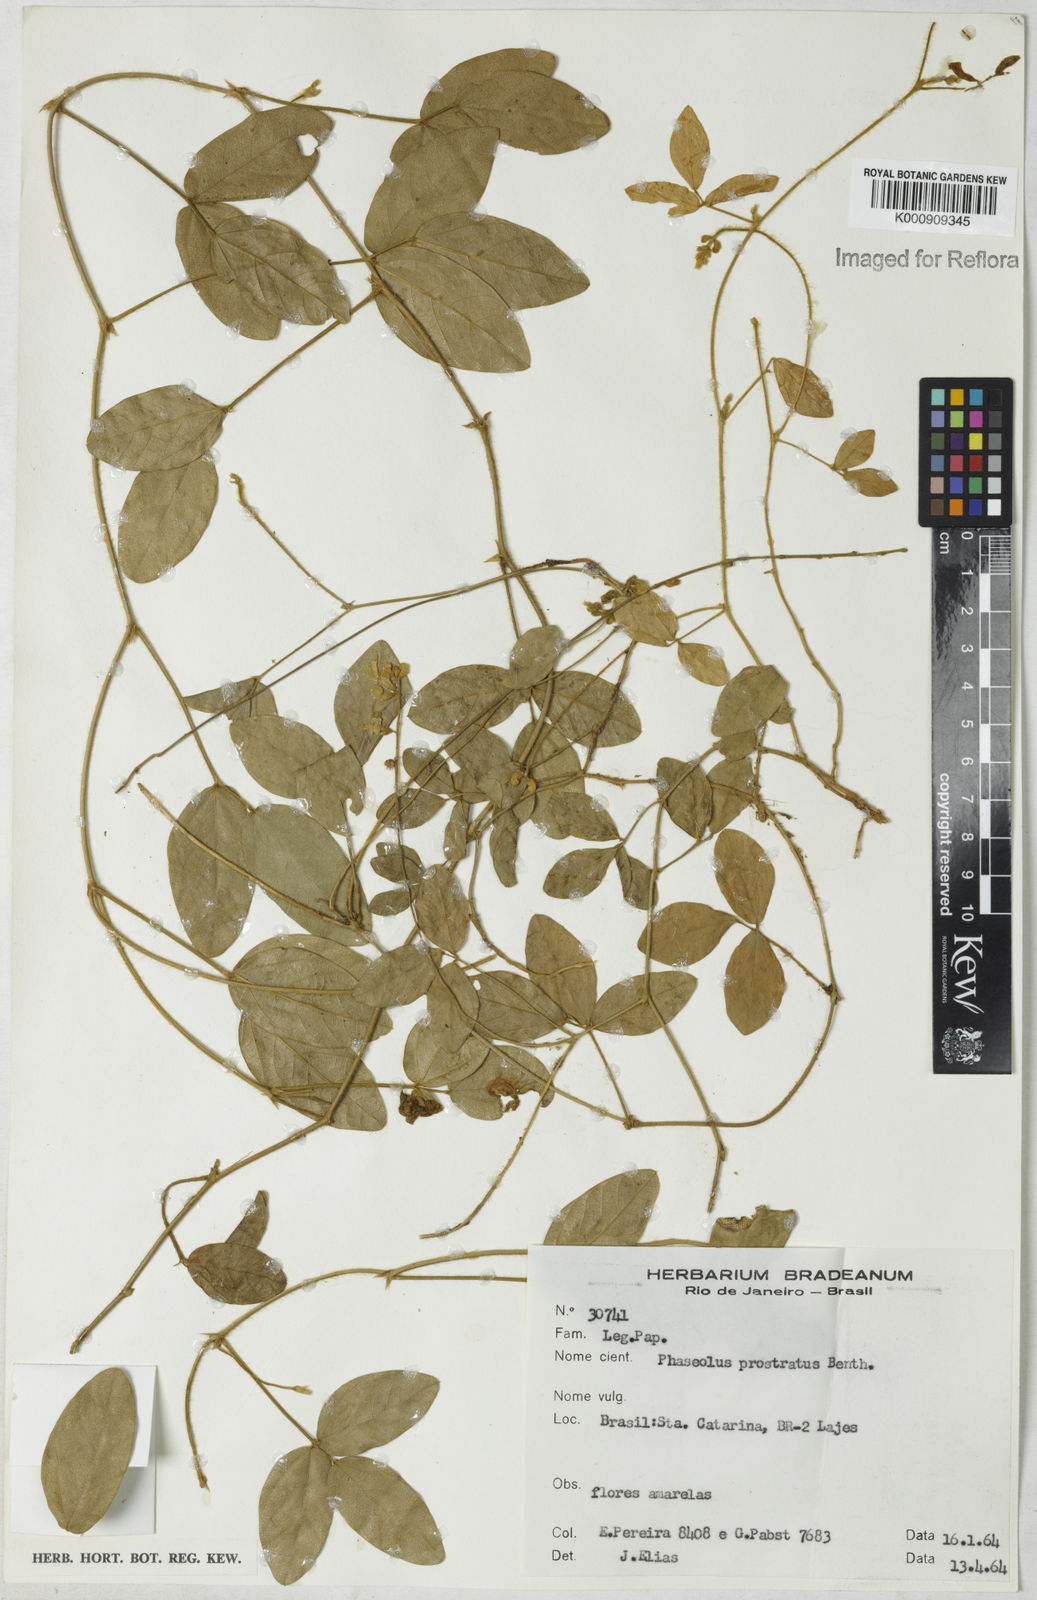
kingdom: Plantae
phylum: Tracheophyta
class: Magnoliopsida
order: Fabales
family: Fabaceae
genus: Macroptilium
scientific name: Macroptilium prostratum
